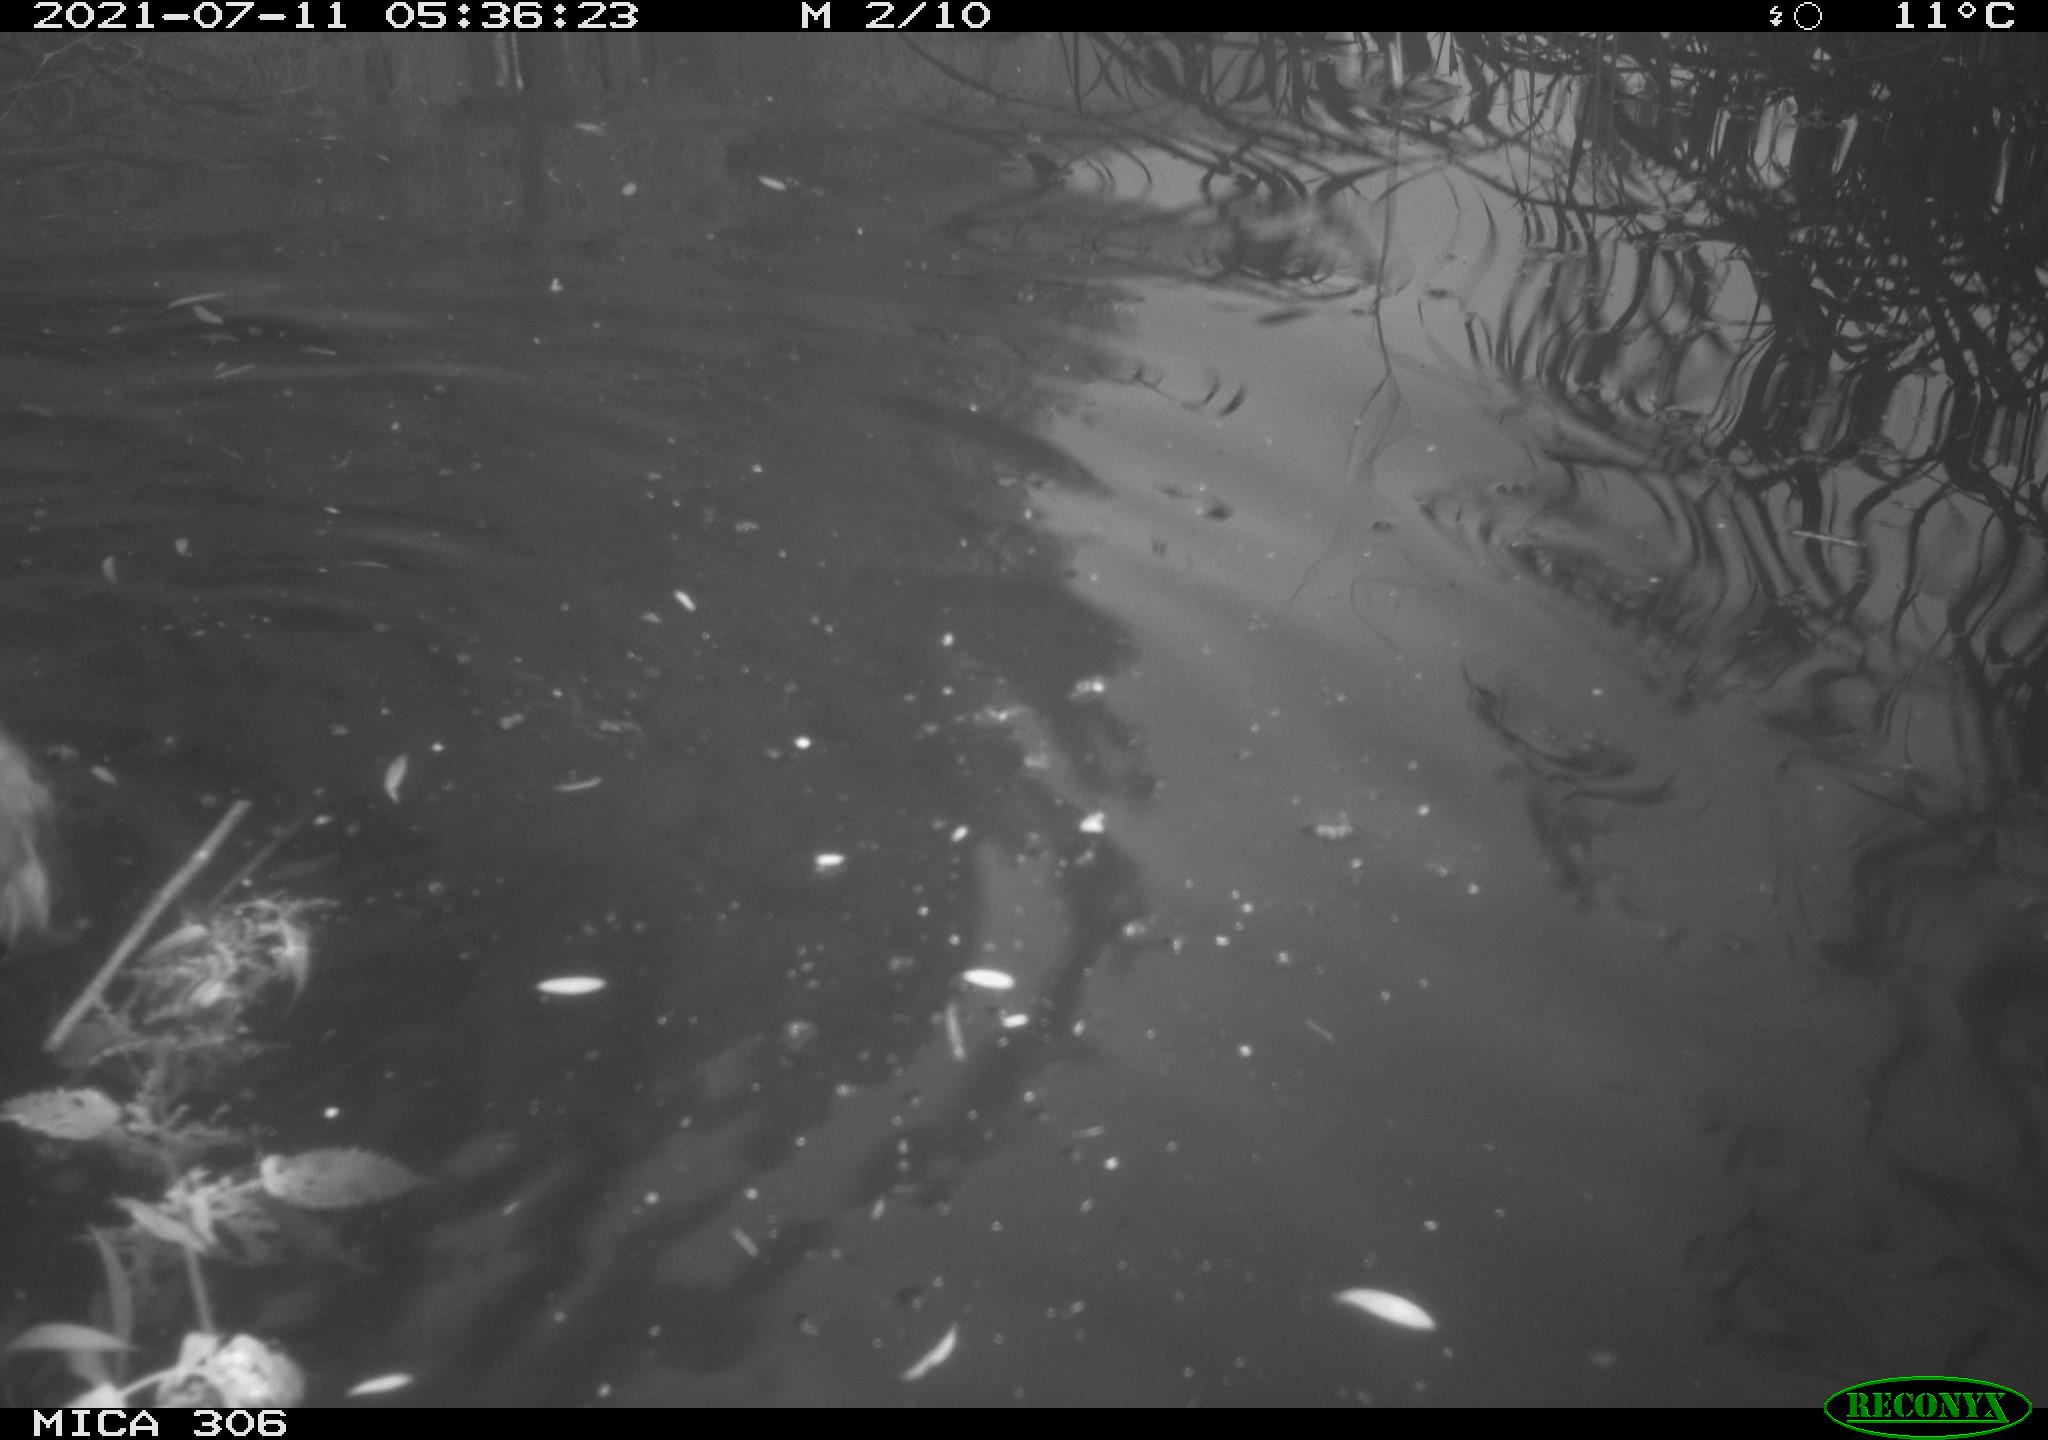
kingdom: Animalia
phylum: Chordata
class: Aves
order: Anseriformes
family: Anatidae
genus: Anas
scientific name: Anas platyrhynchos
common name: Mallard
